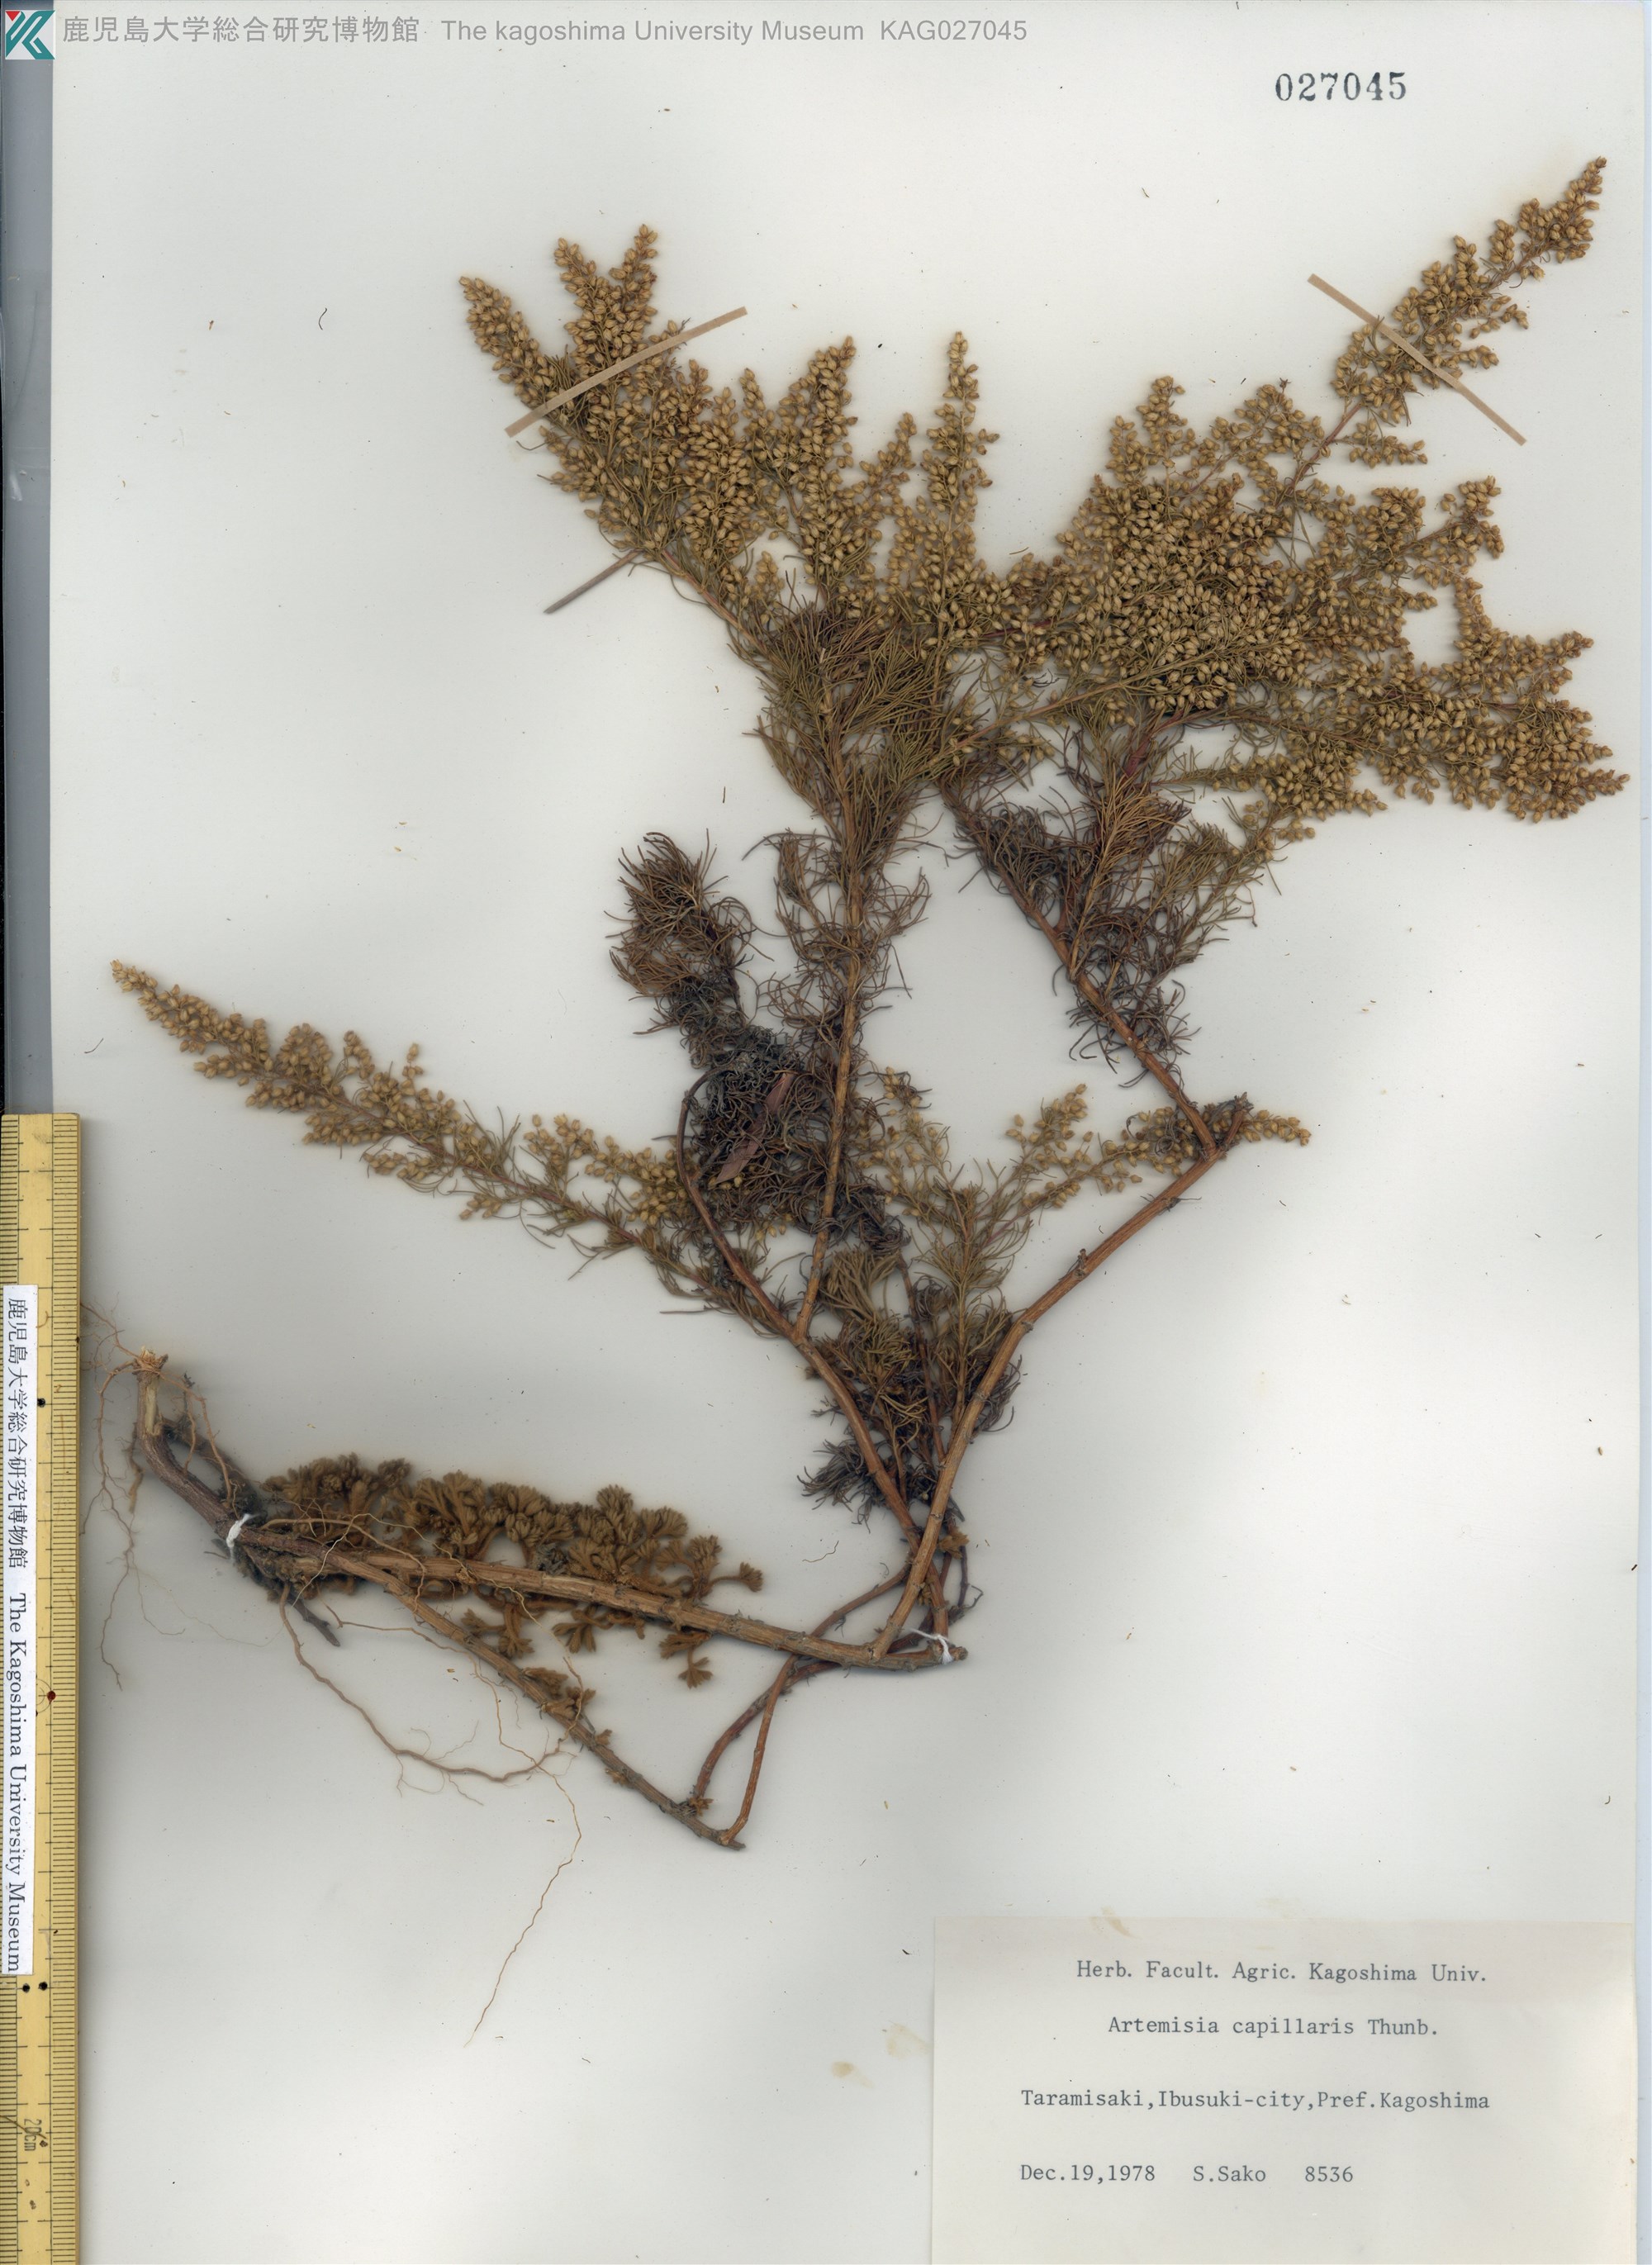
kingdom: Plantae
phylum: Tracheophyta
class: Magnoliopsida
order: Asterales
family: Asteraceae
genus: Artemisia
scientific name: Artemisia capillaris
